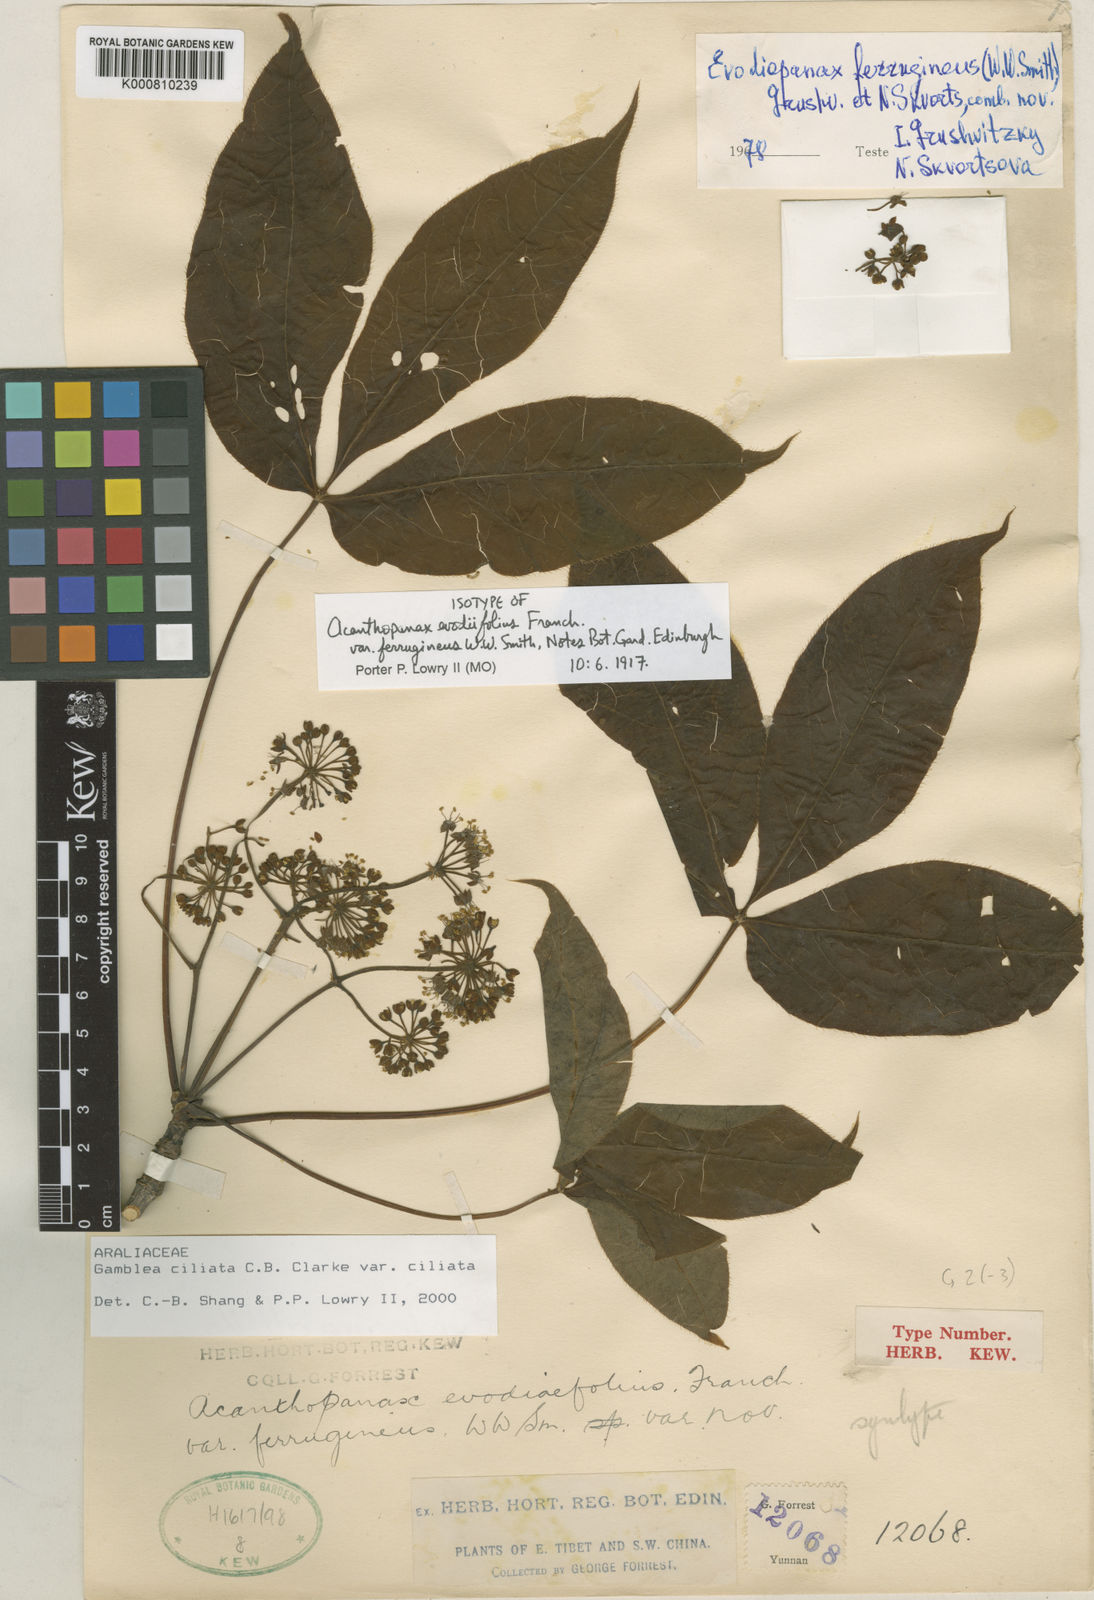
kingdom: Plantae
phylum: Tracheophyta
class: Magnoliopsida
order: Apiales
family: Araliaceae
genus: Gamblea
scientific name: Gamblea ciliata
